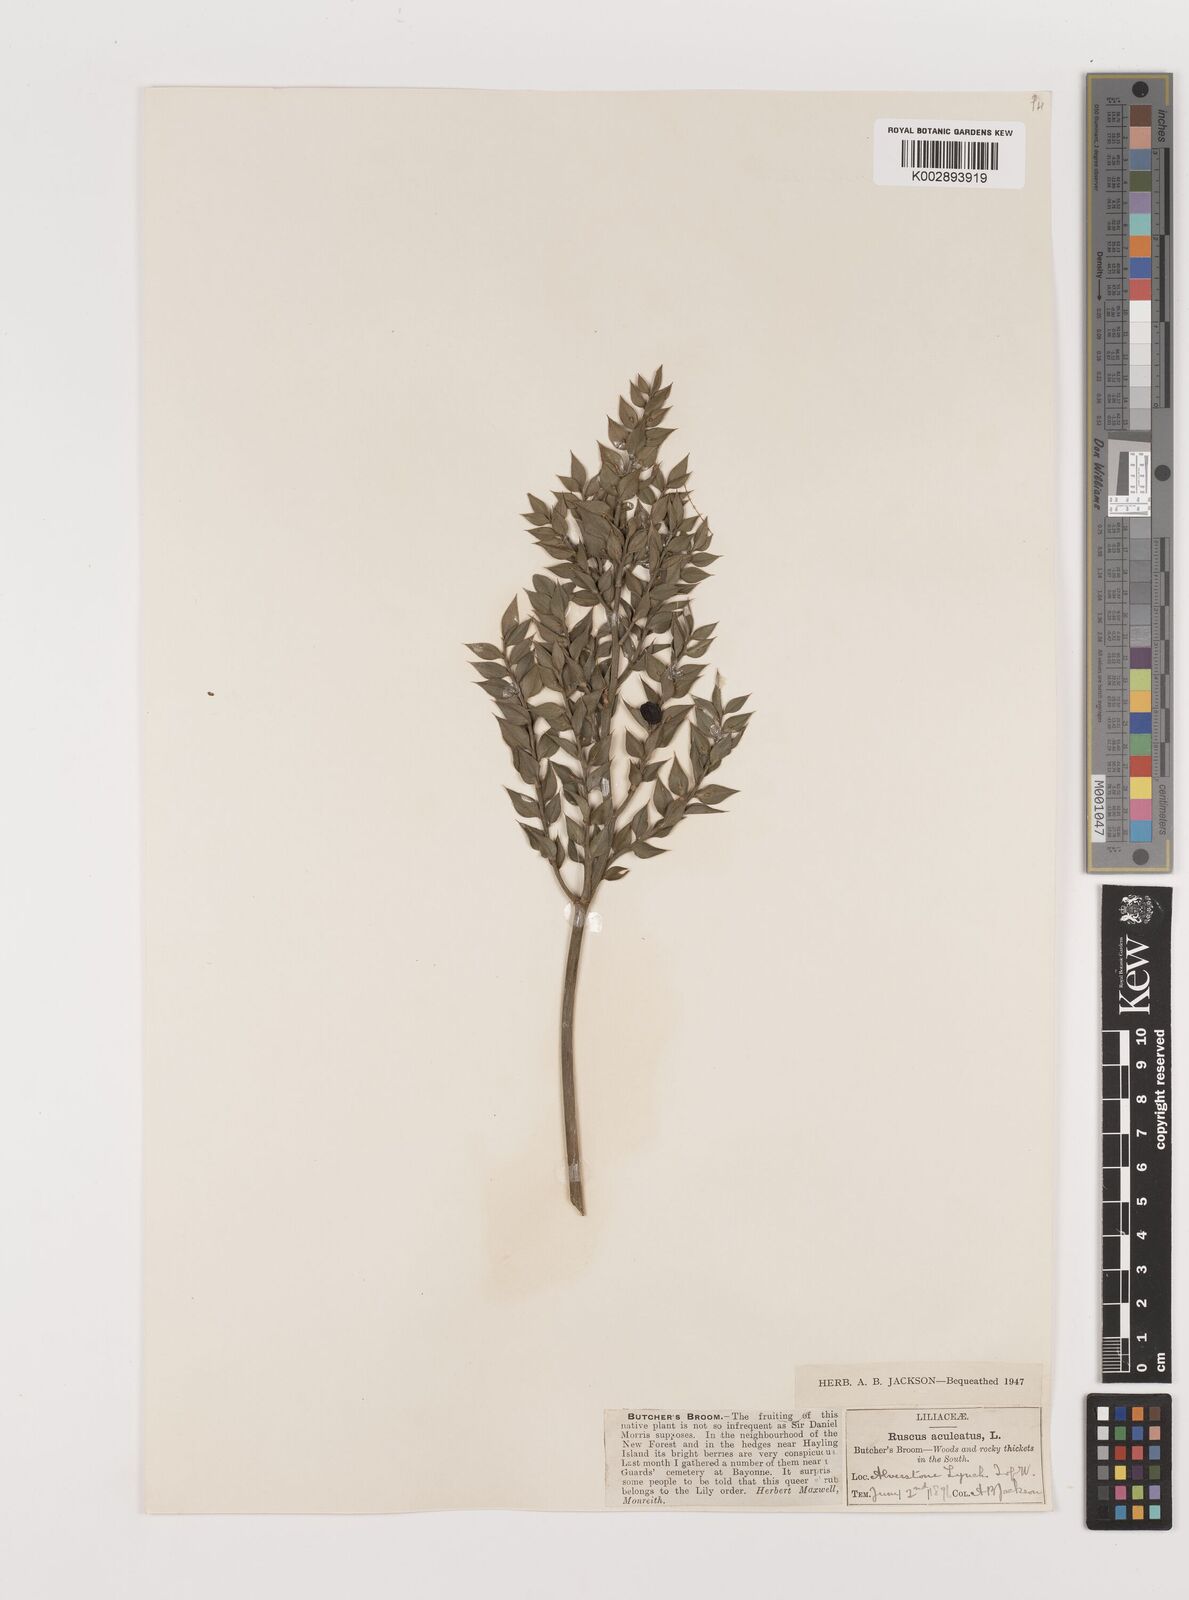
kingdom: Plantae
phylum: Tracheophyta
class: Liliopsida
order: Asparagales
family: Asparagaceae
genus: Ruscus
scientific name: Ruscus aculeatus
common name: Butcher's-broom
